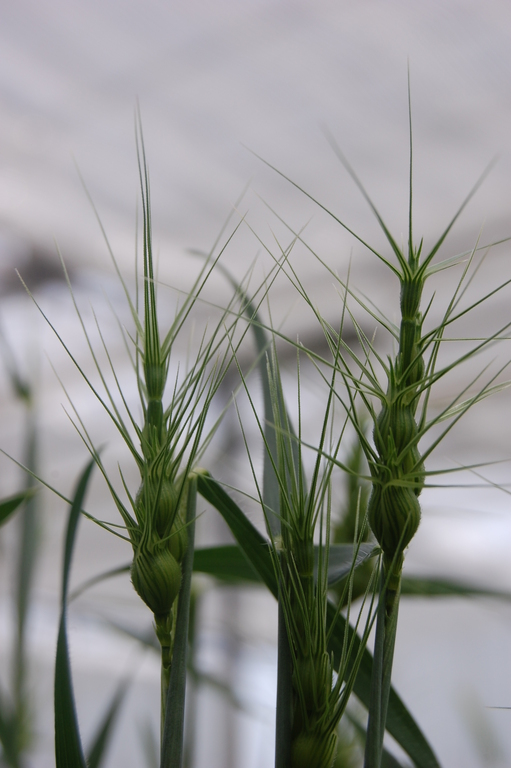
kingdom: Plantae
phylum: Tracheophyta
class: Liliopsida
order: Poales
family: Poaceae
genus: Aegilops
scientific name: Aegilops neglecta
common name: Three-awn goat grass
